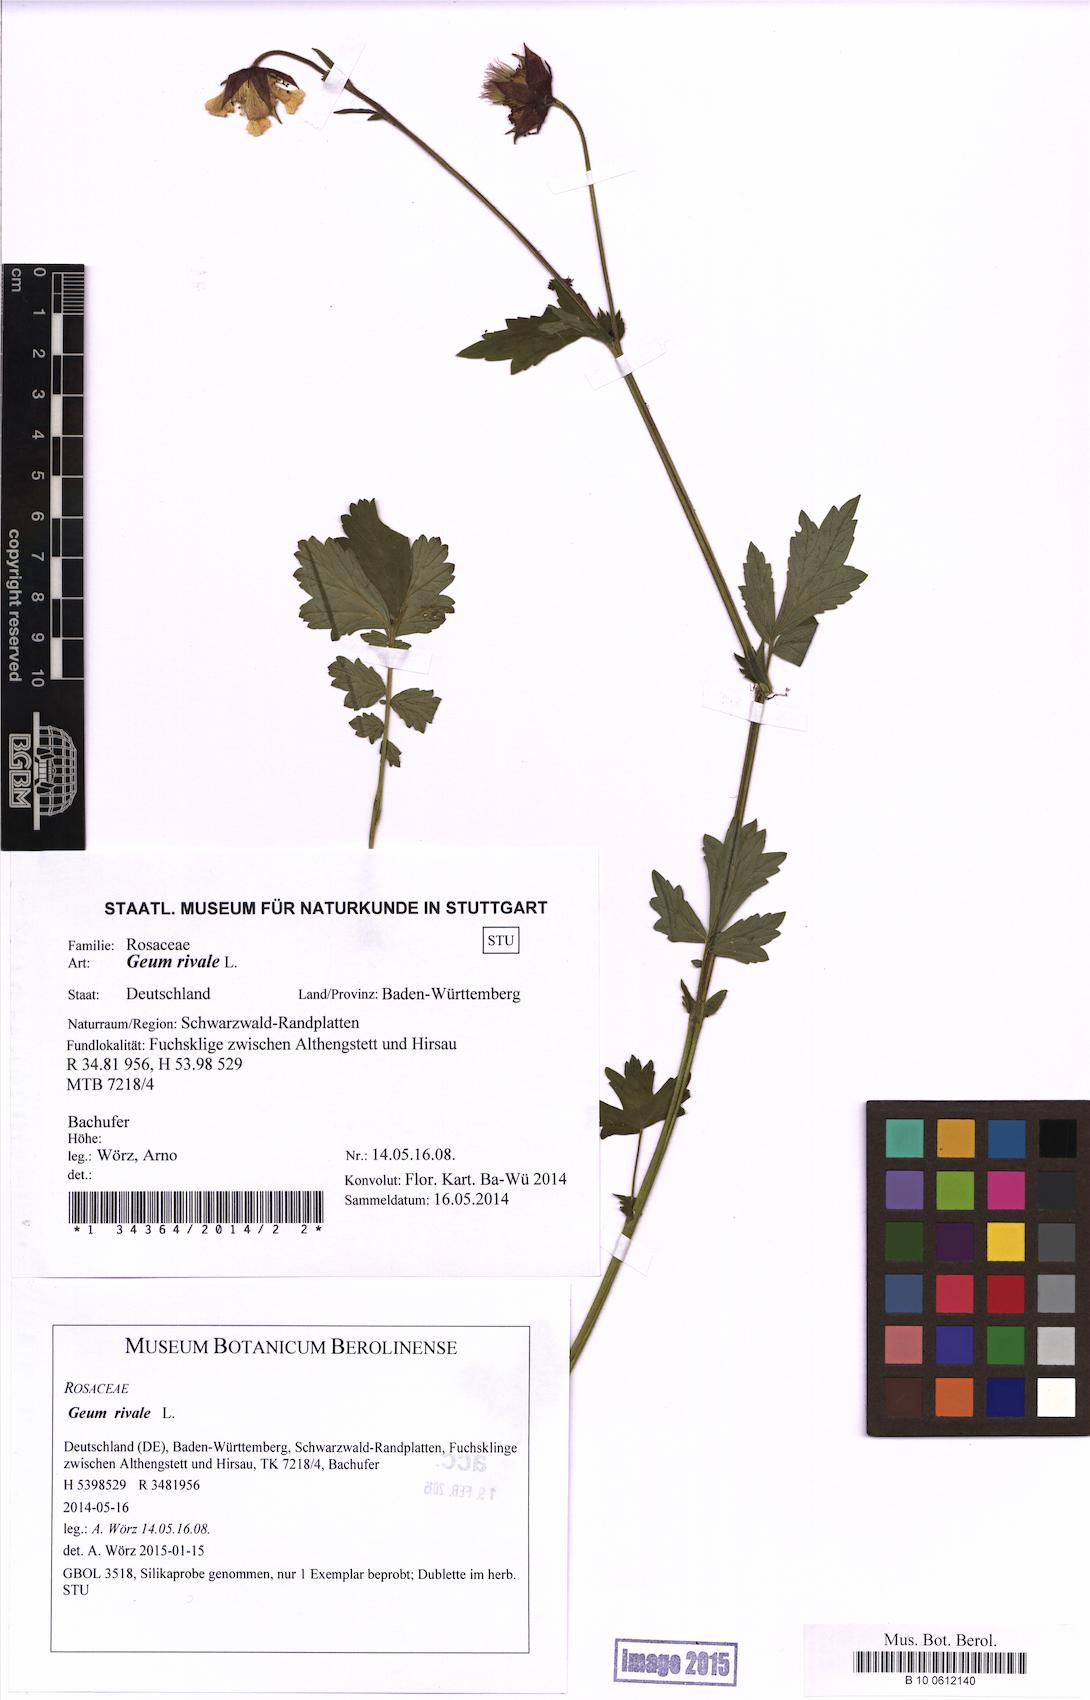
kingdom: Plantae
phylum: Tracheophyta
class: Magnoliopsida
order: Rosales
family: Rosaceae
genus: Geum
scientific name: Geum rivale
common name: Water avens
